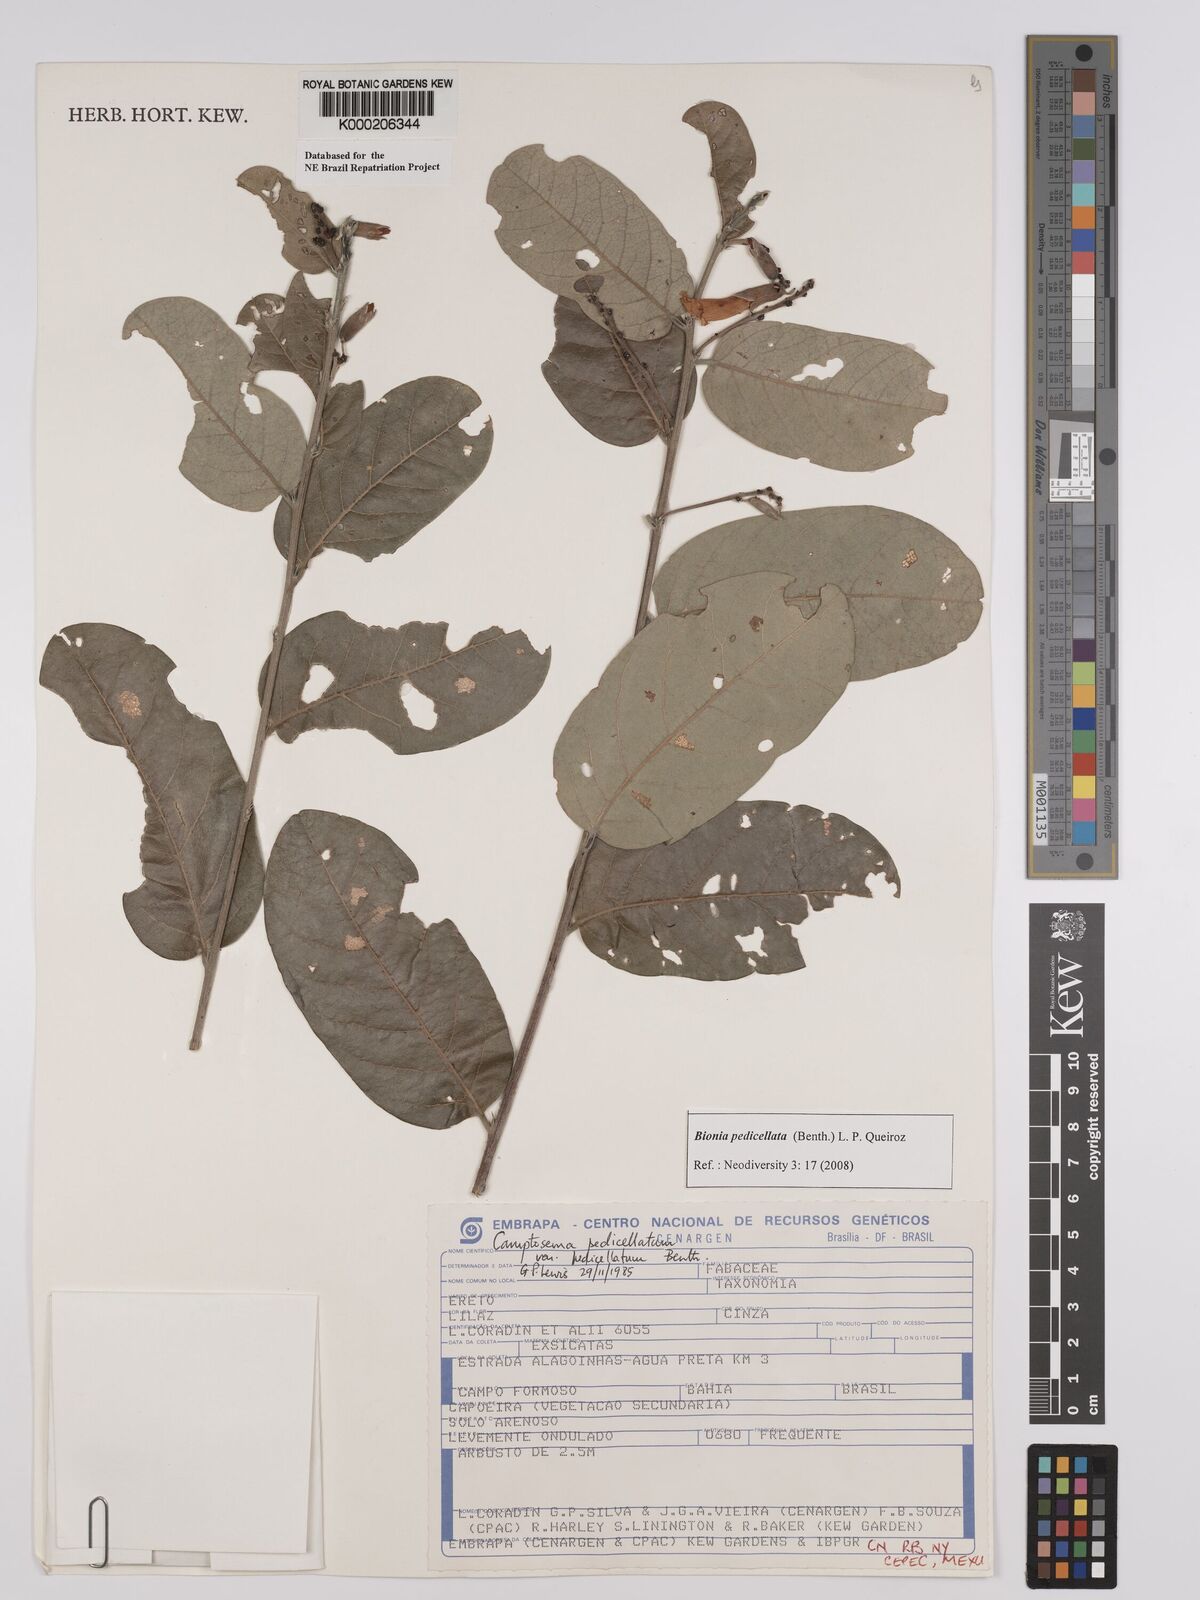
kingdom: Plantae
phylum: Tracheophyta
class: Magnoliopsida
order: Fabales
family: Fabaceae
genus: Camptosema
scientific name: Camptosema pedicellatum
